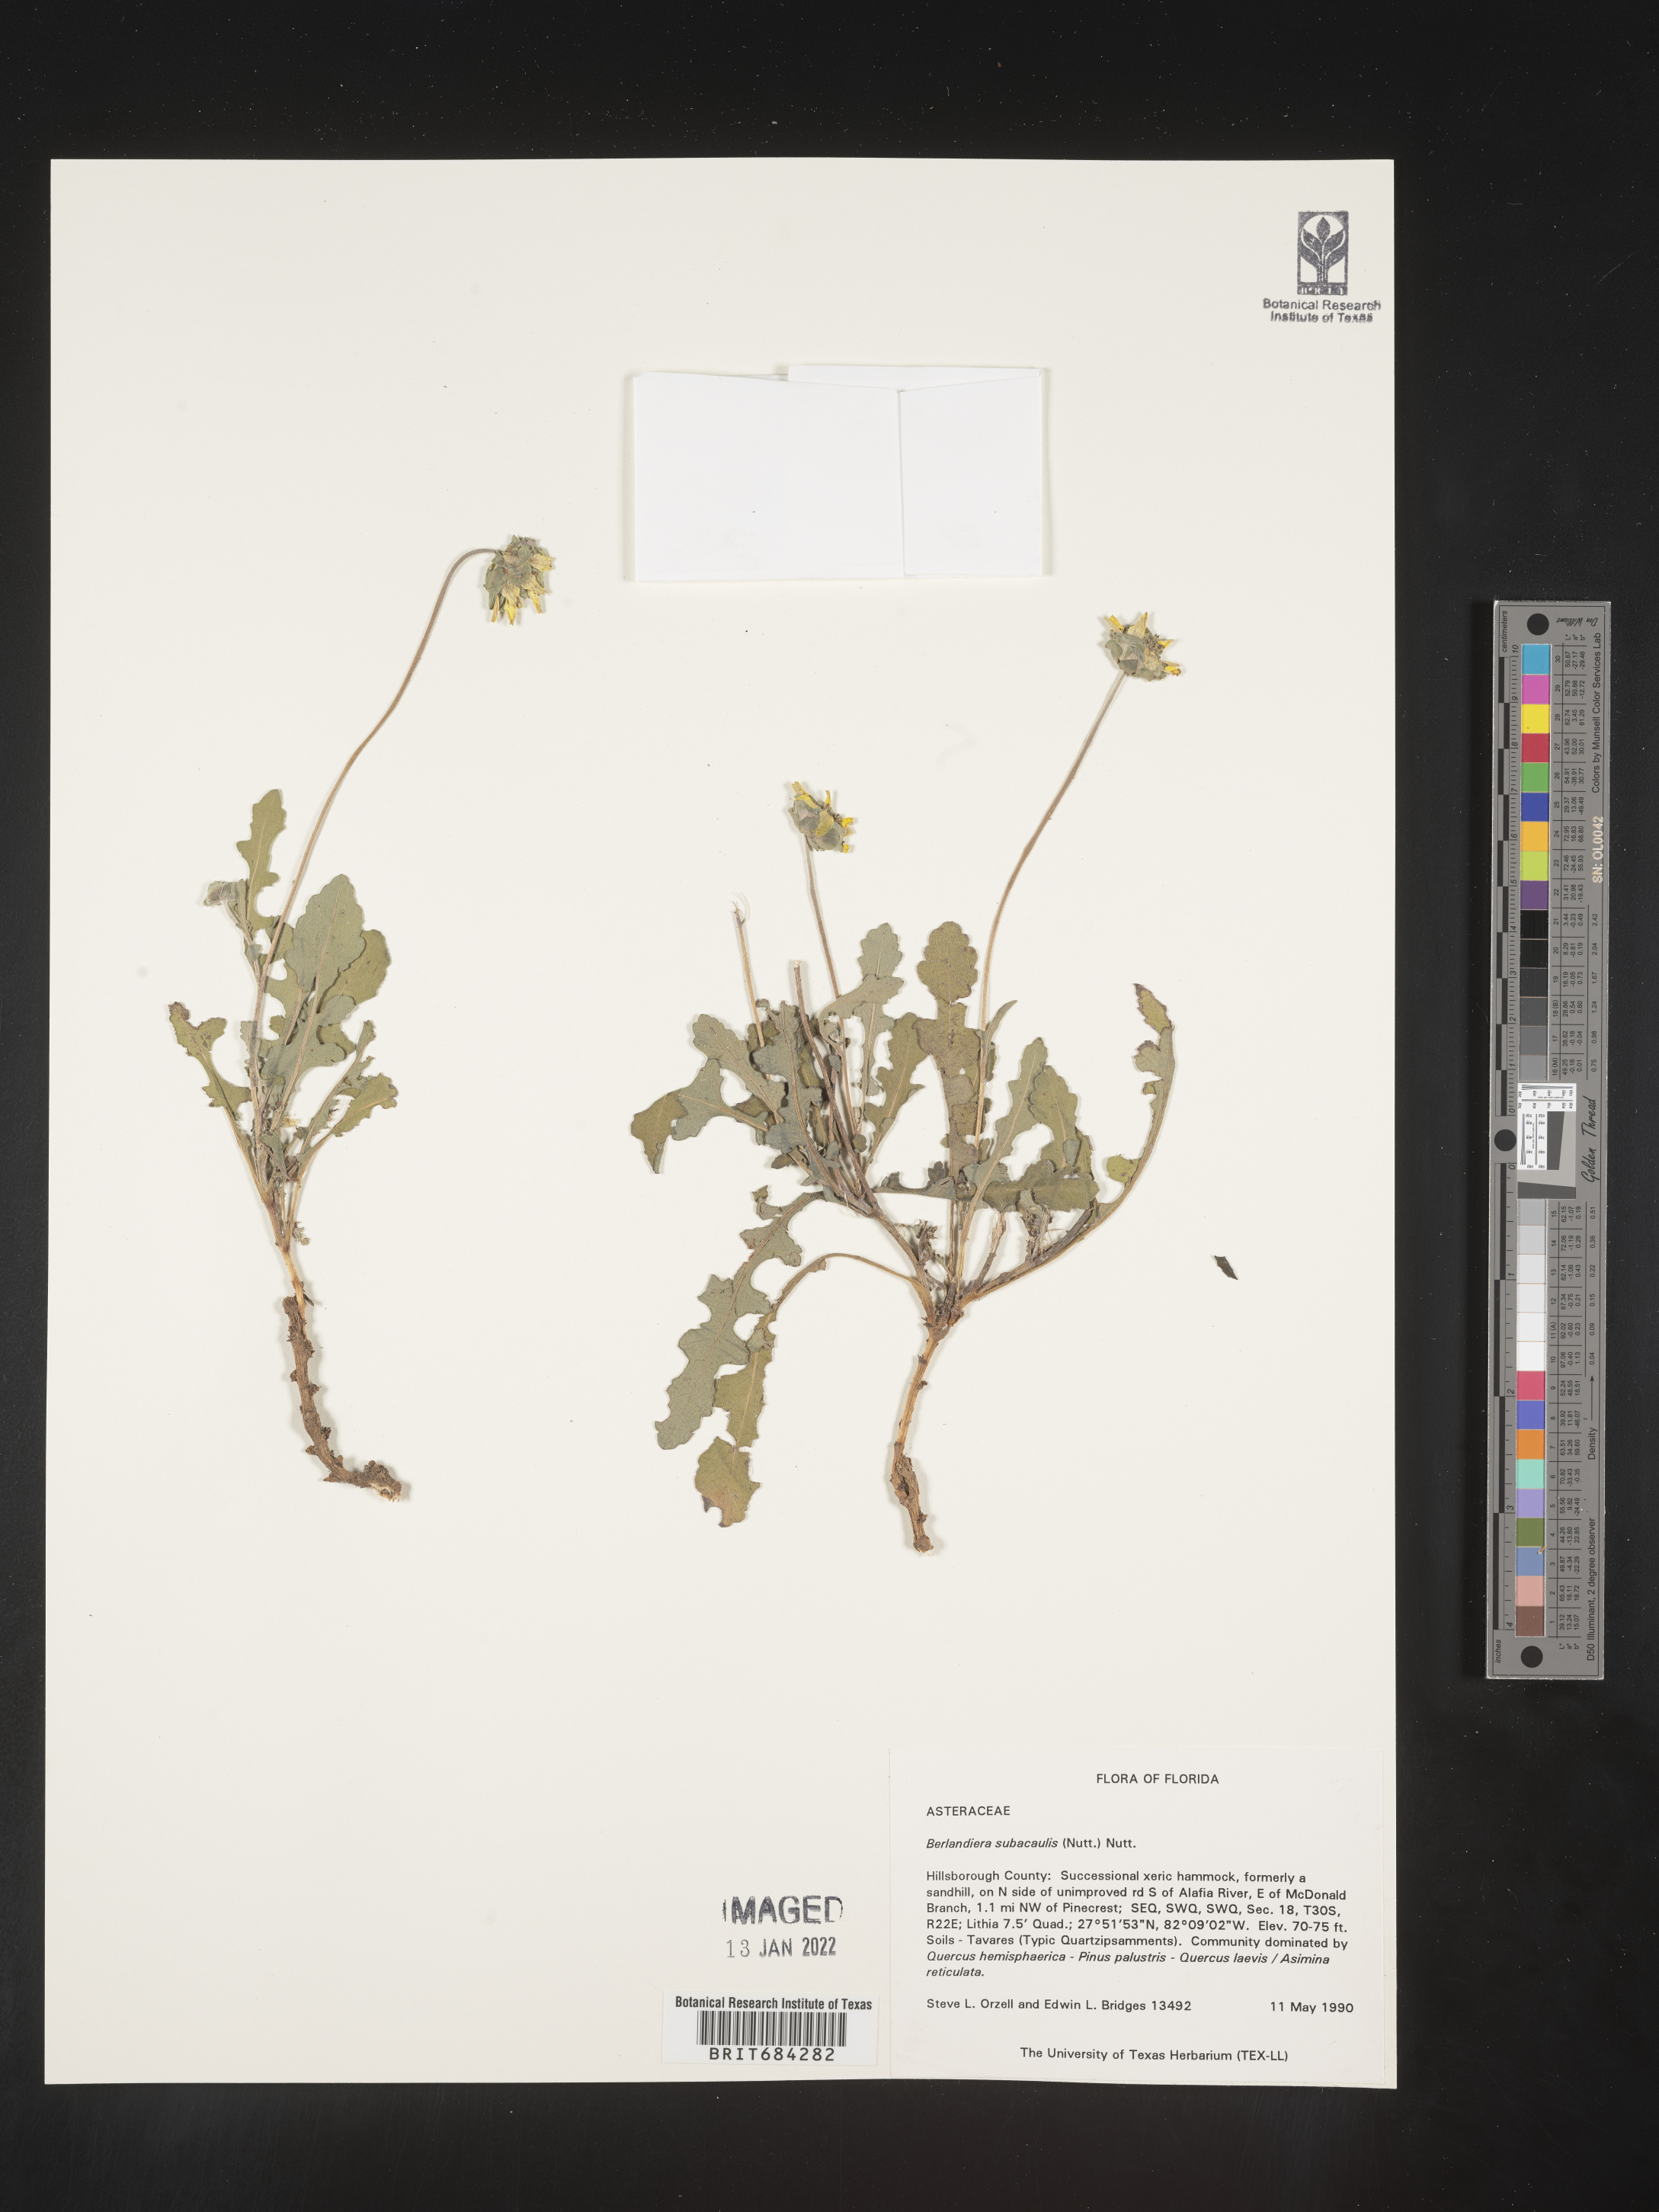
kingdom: Plantae
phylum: Tracheophyta
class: Magnoliopsida
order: Asterales
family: Asteraceae
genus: Berlandiera
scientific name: Berlandiera subacaulis
